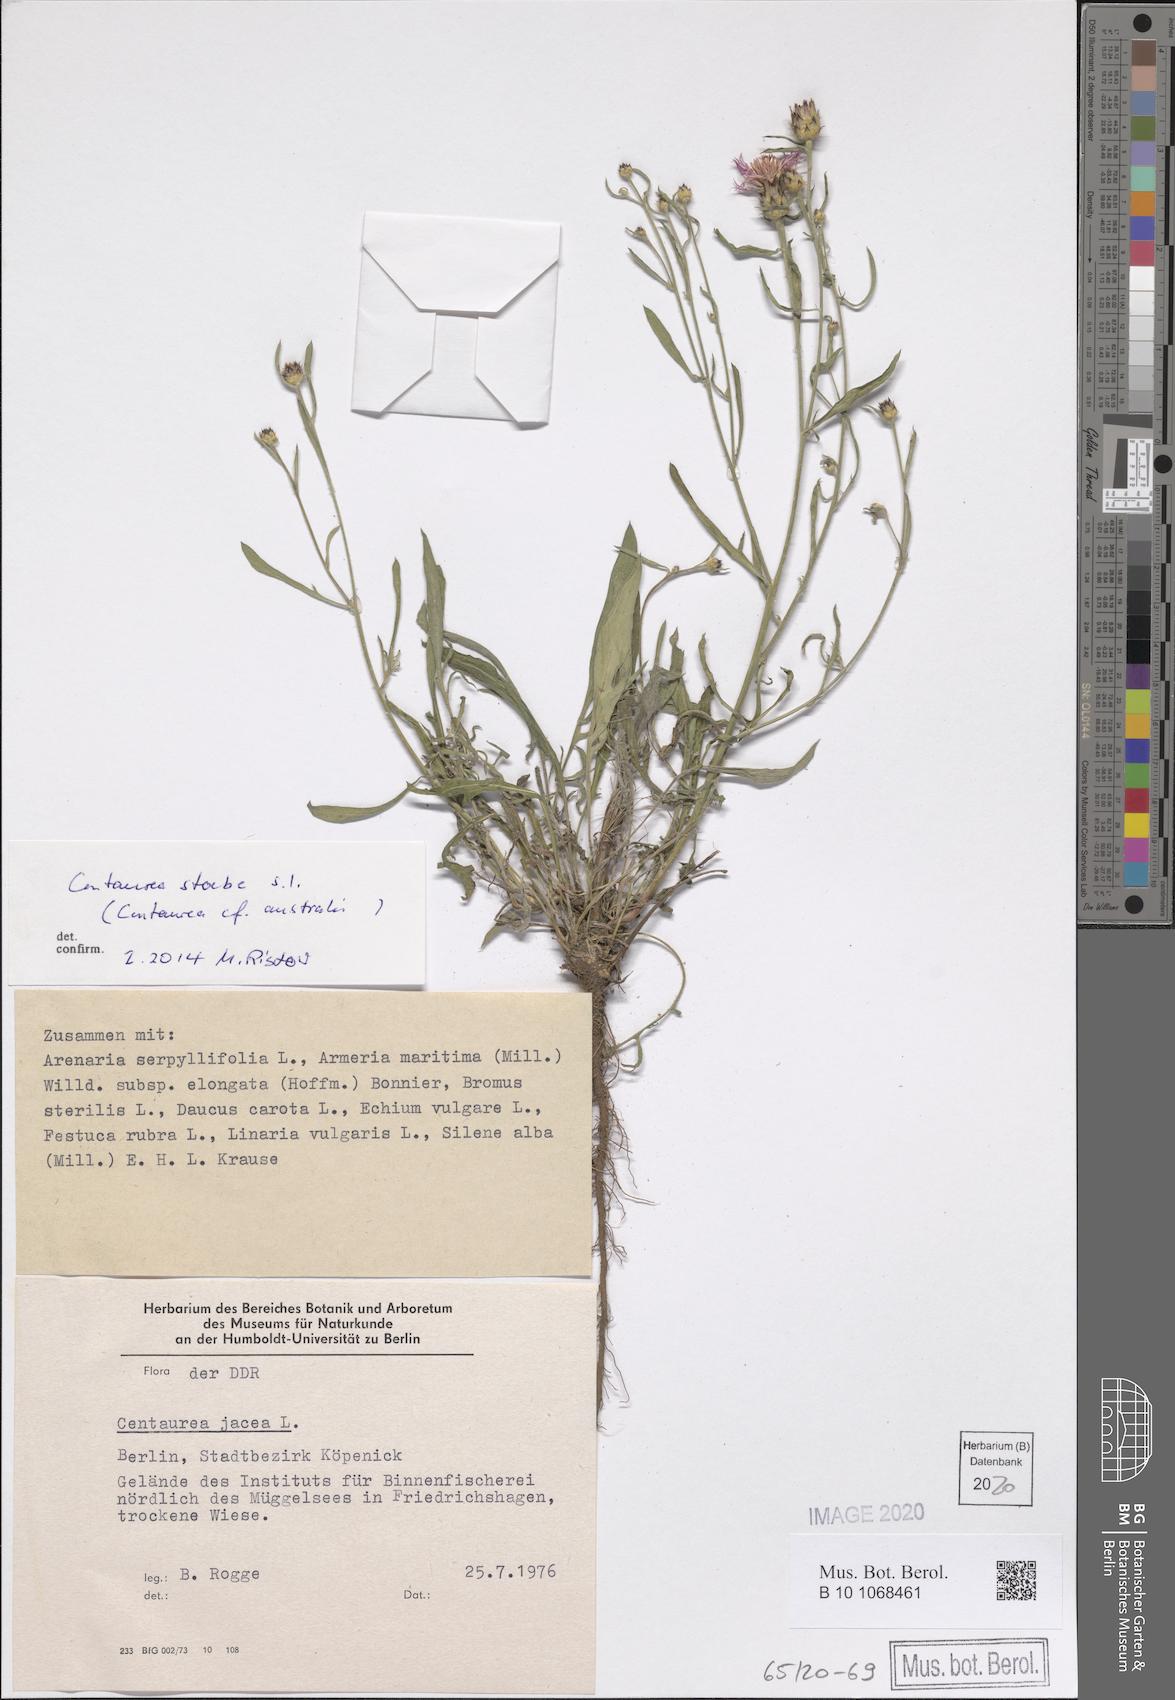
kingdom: Plantae
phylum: Tracheophyta
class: Magnoliopsida
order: Asterales
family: Asteraceae
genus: Centaurea
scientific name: Centaurea stoebe
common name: Spotted knapweed
